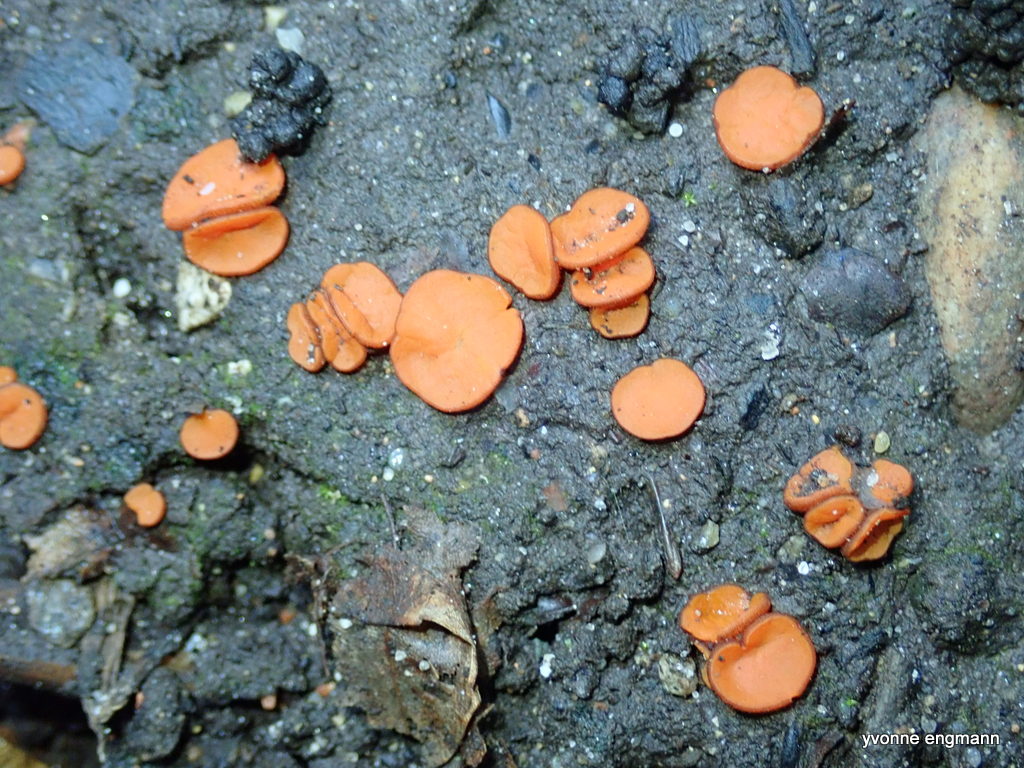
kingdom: Fungi
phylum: Ascomycota
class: Pezizomycetes
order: Pezizales
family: Pyronemataceae
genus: Melastiza
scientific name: Melastiza
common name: rødbæger
